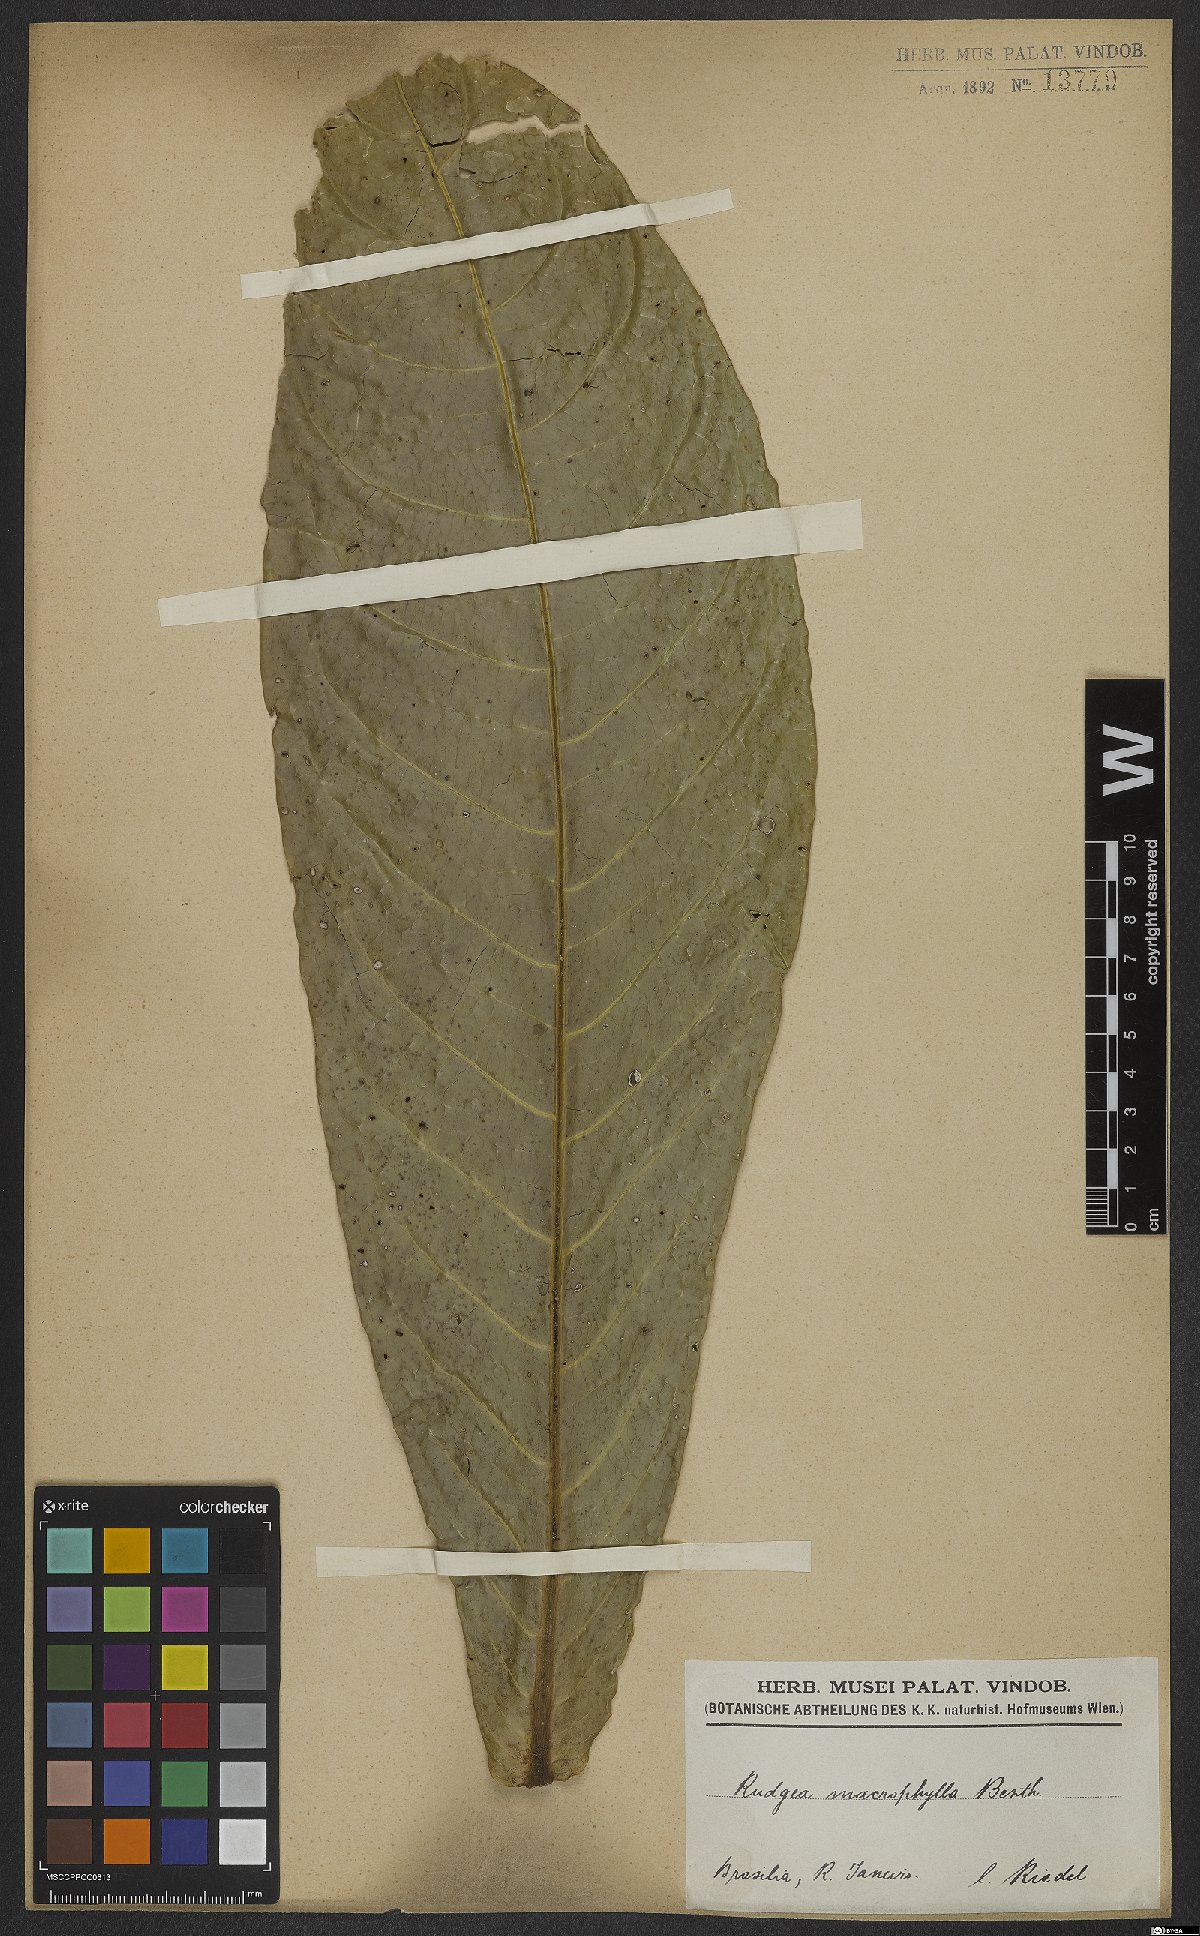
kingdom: Plantae
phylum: Tracheophyta
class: Magnoliopsida
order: Gentianales
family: Rubiaceae
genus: Rudgea
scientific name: Rudgea macrophylla
